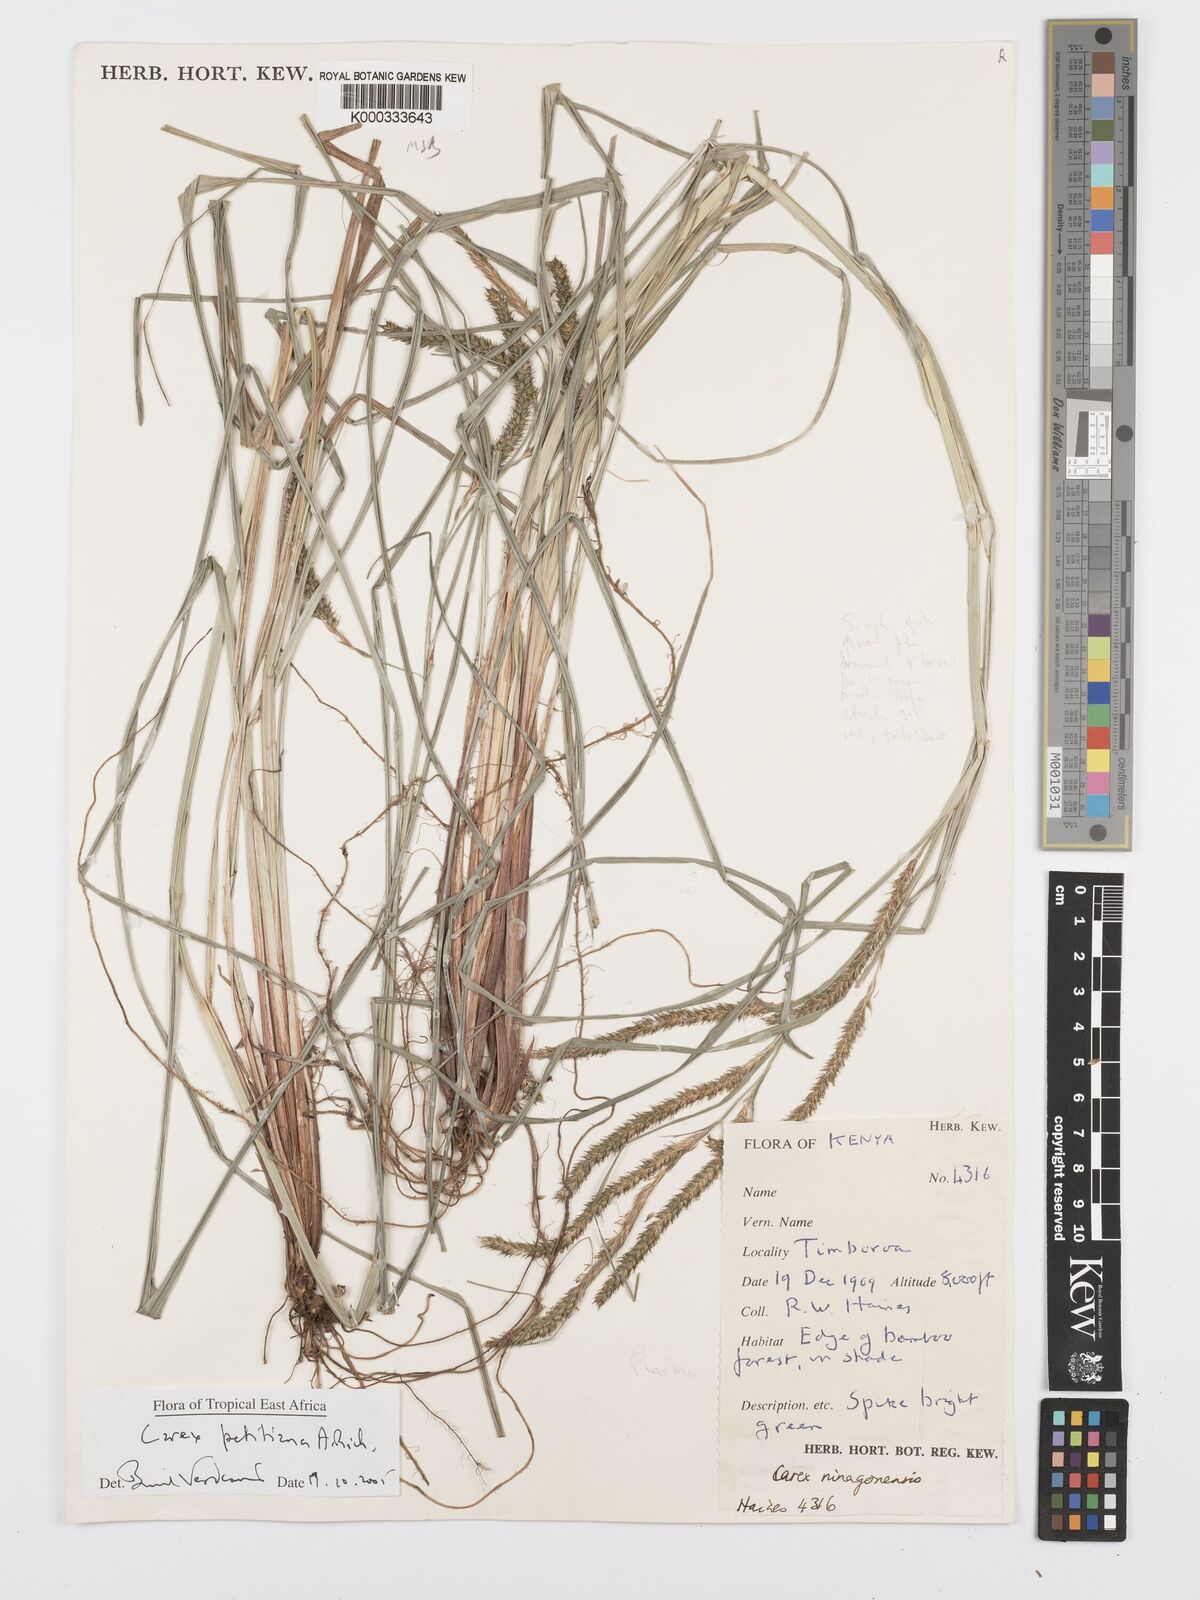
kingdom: Plantae
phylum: Tracheophyta
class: Liliopsida
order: Poales
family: Cyperaceae
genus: Carex
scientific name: Carex petitiana
